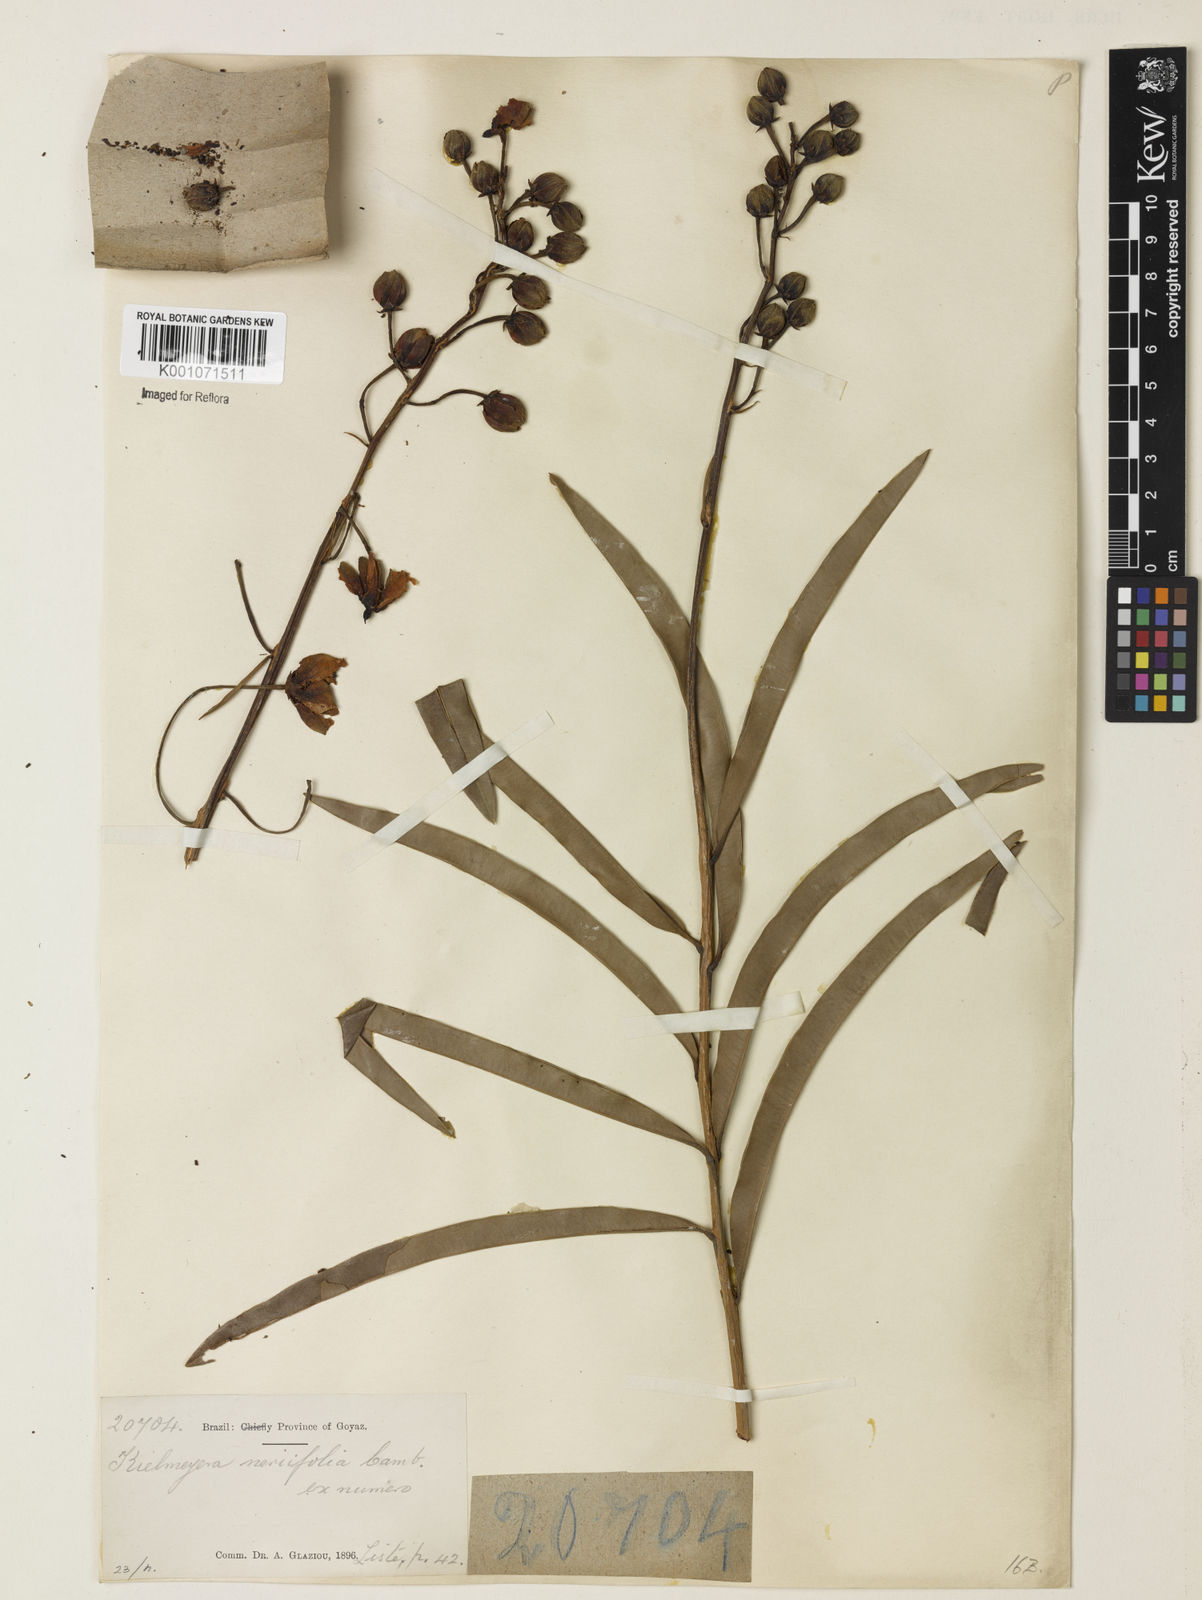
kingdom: Plantae
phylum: Tracheophyta
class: Magnoliopsida
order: Malpighiales
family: Calophyllaceae
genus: Kielmeyera
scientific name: Kielmeyera abdita
